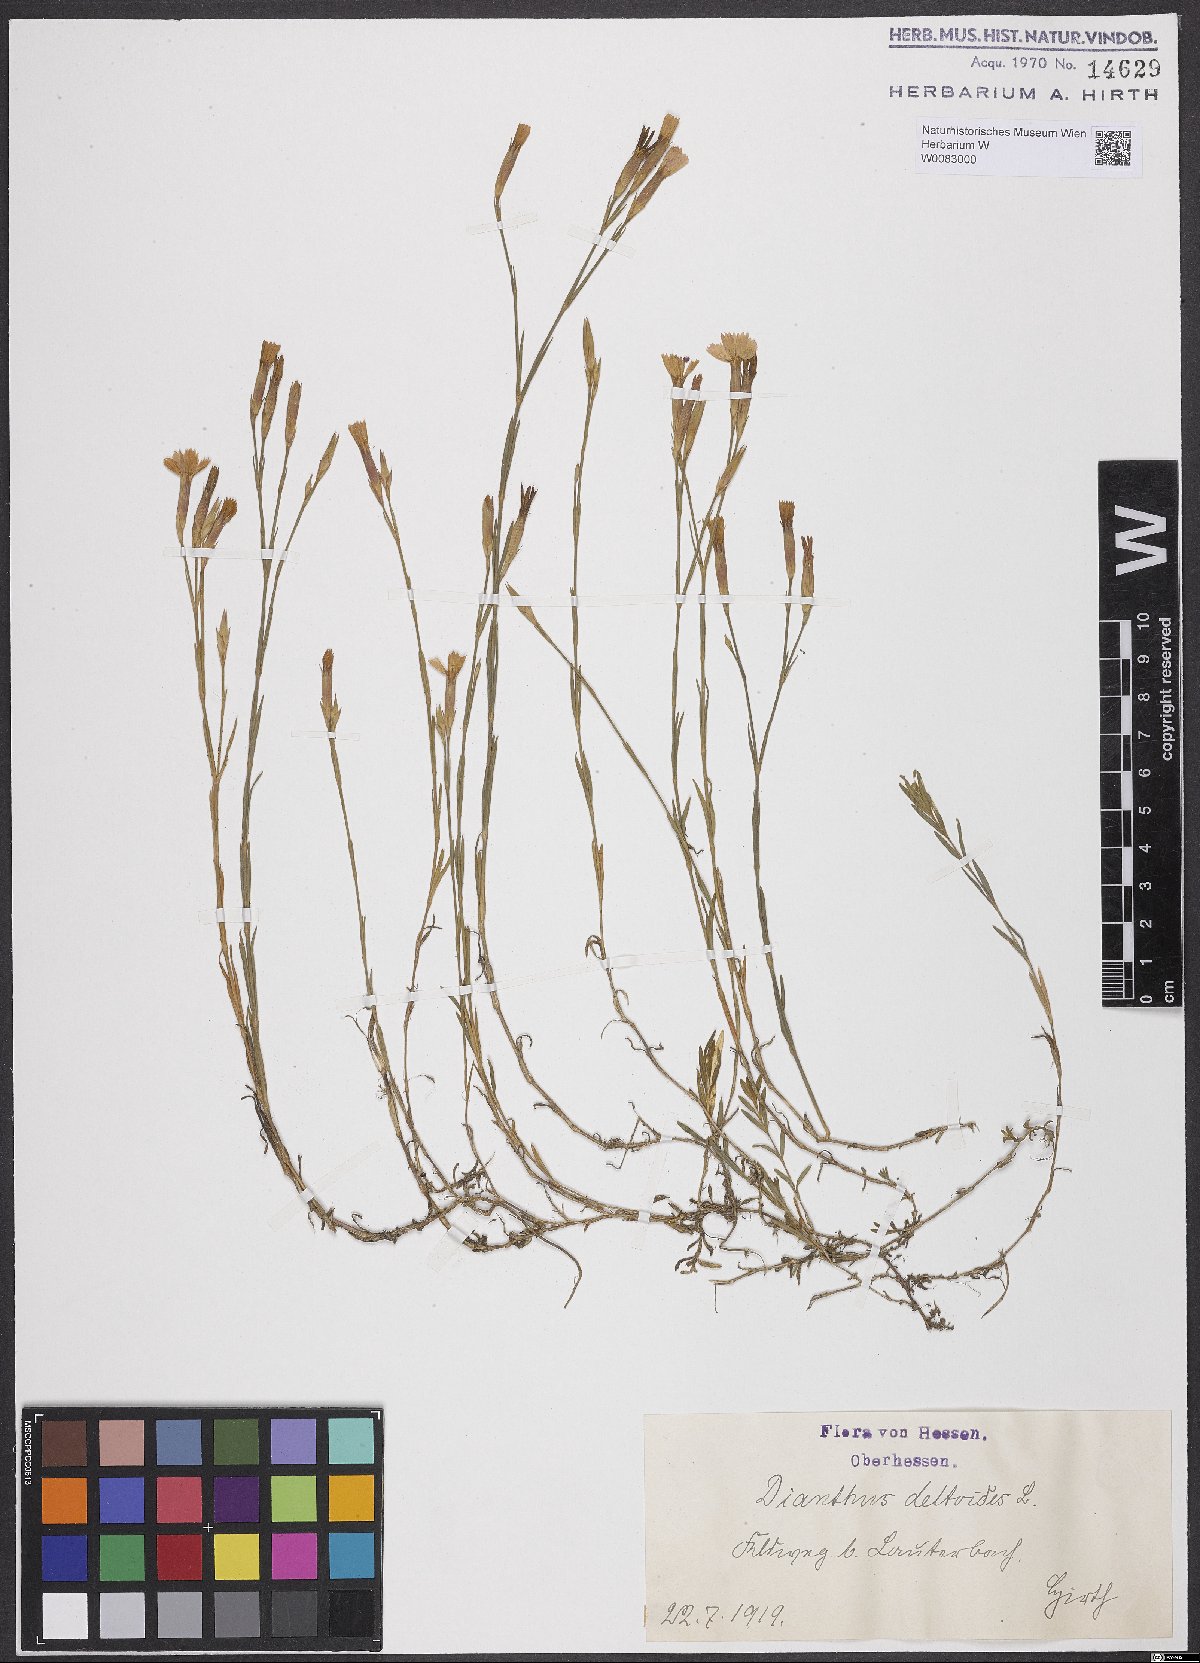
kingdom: Plantae
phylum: Tracheophyta
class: Magnoliopsida
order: Caryophyllales
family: Caryophyllaceae
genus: Dianthus
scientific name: Dianthus deltoides
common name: Maiden pink
